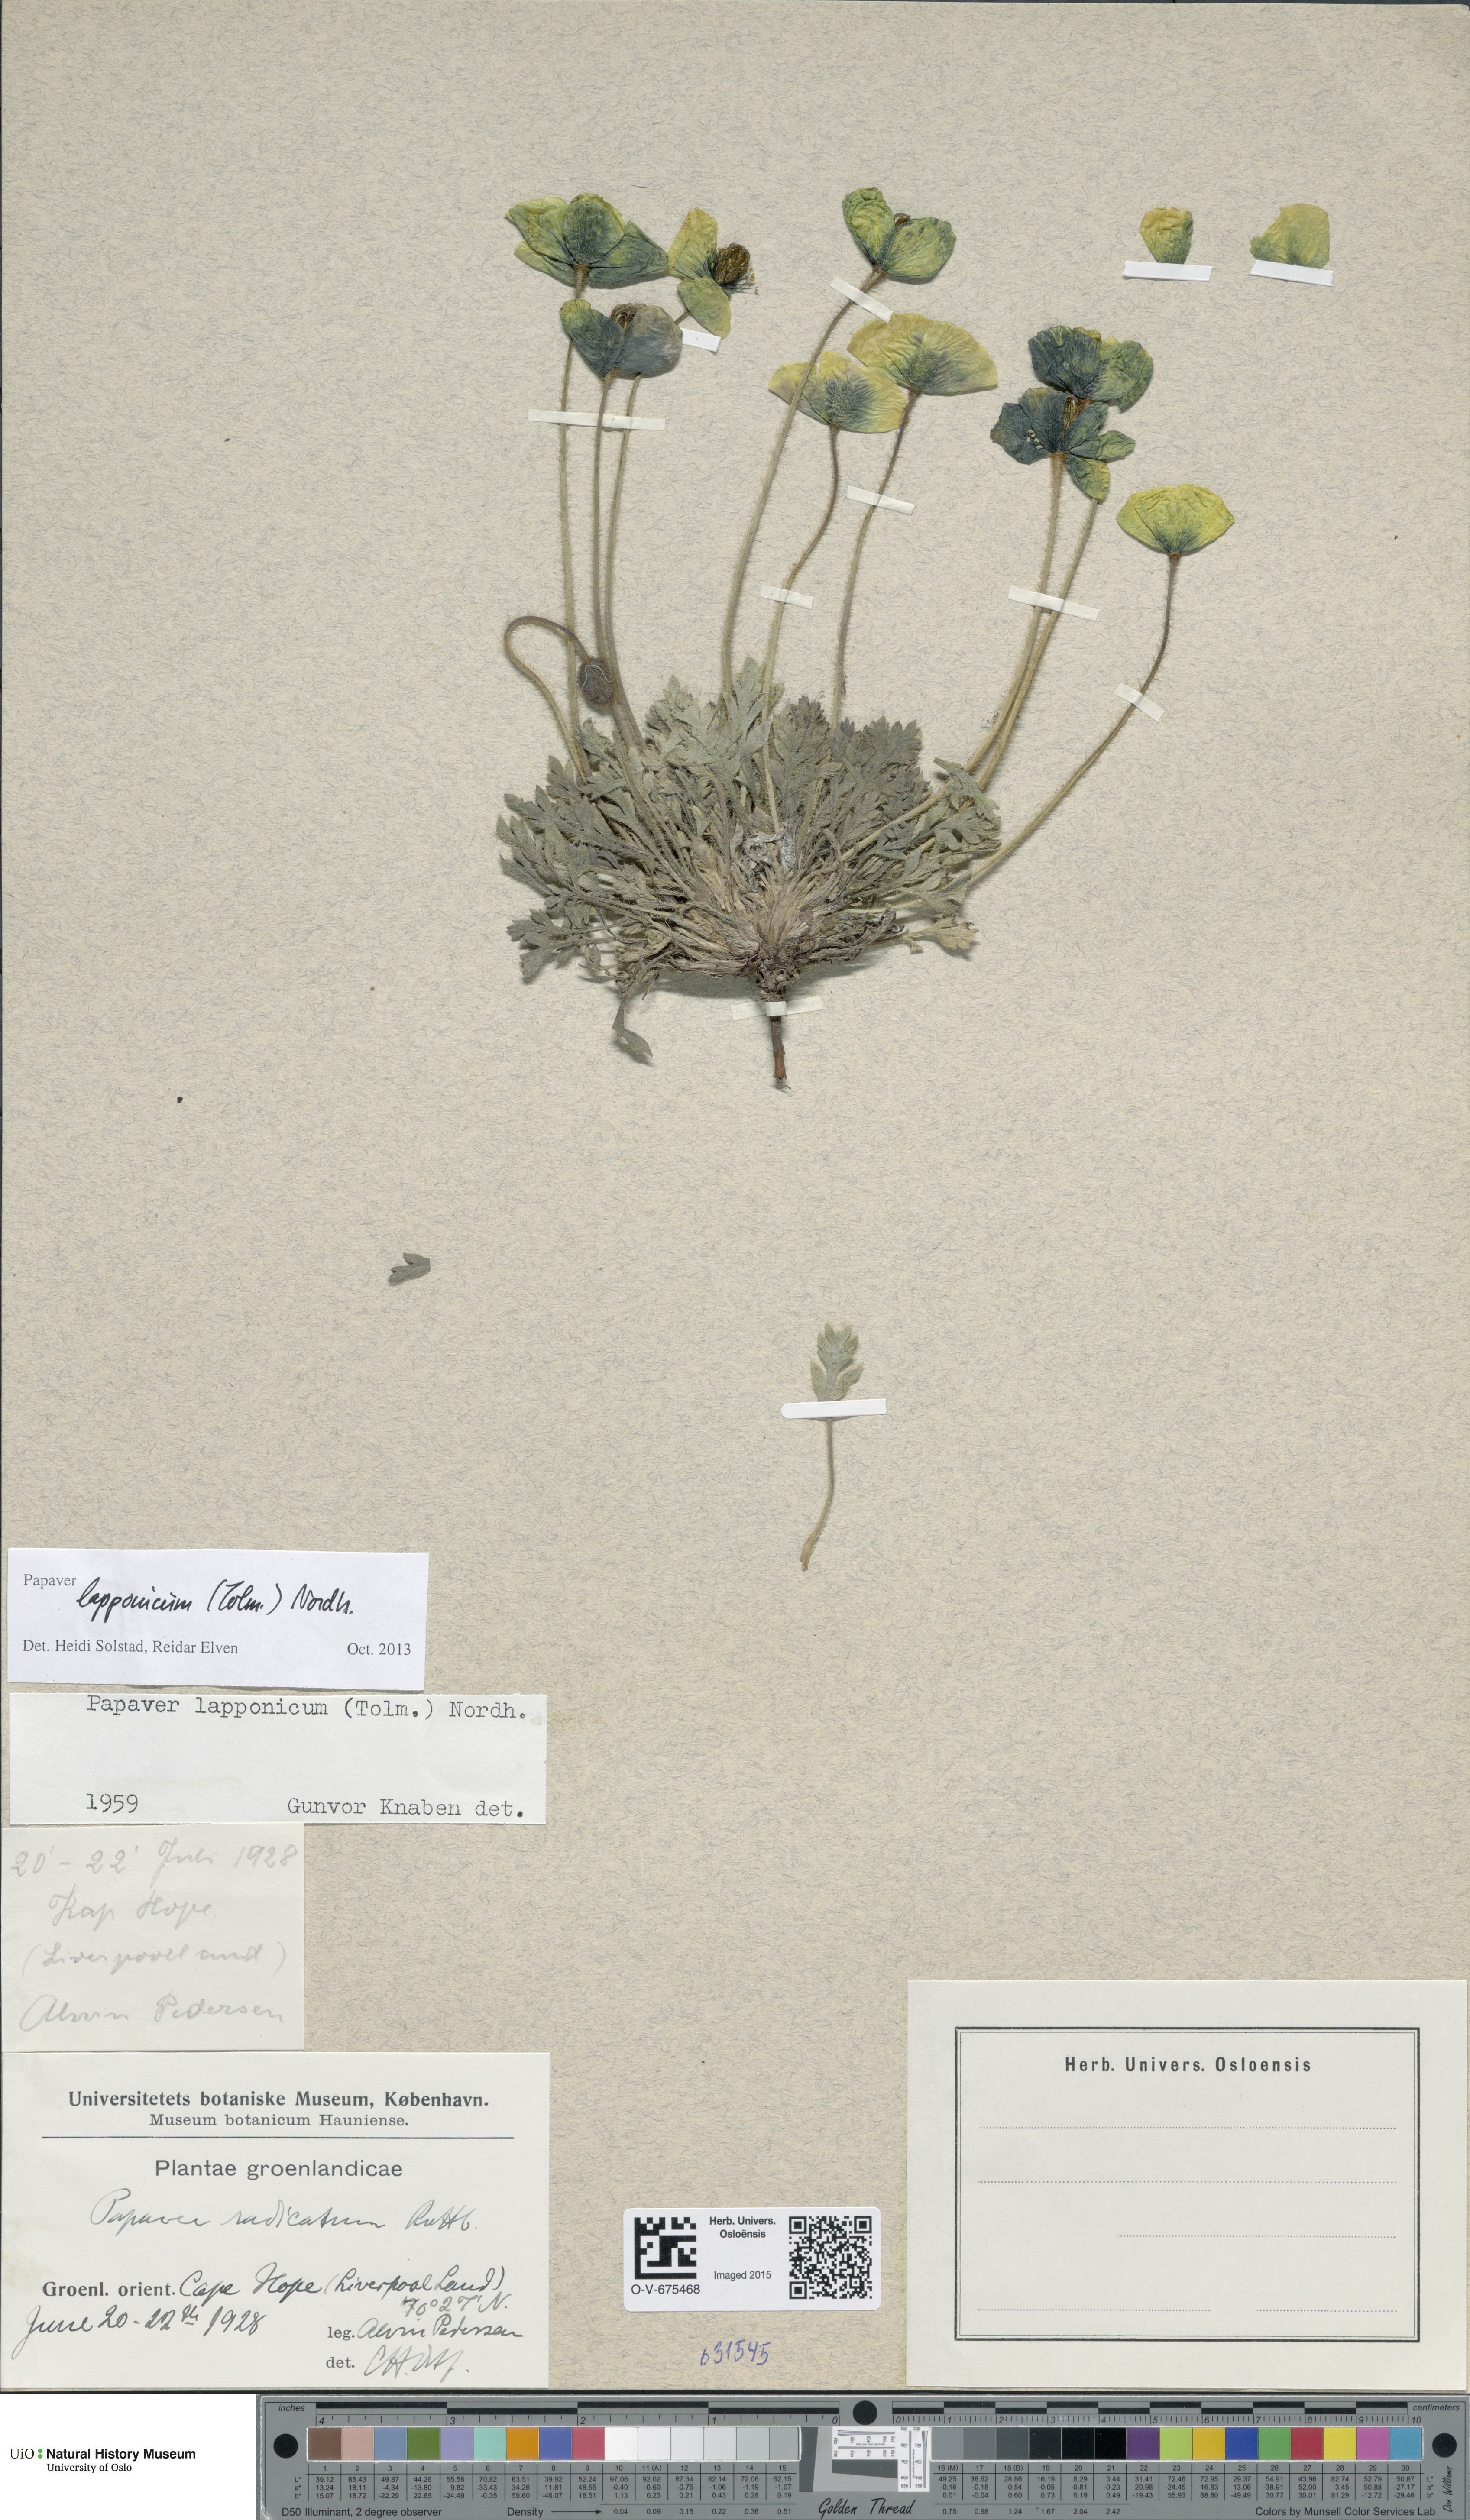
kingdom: Plantae
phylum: Tracheophyta
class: Magnoliopsida
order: Ranunculales
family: Papaveraceae
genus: Papaver
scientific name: Papaver lapponicum
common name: Lapland poppy
